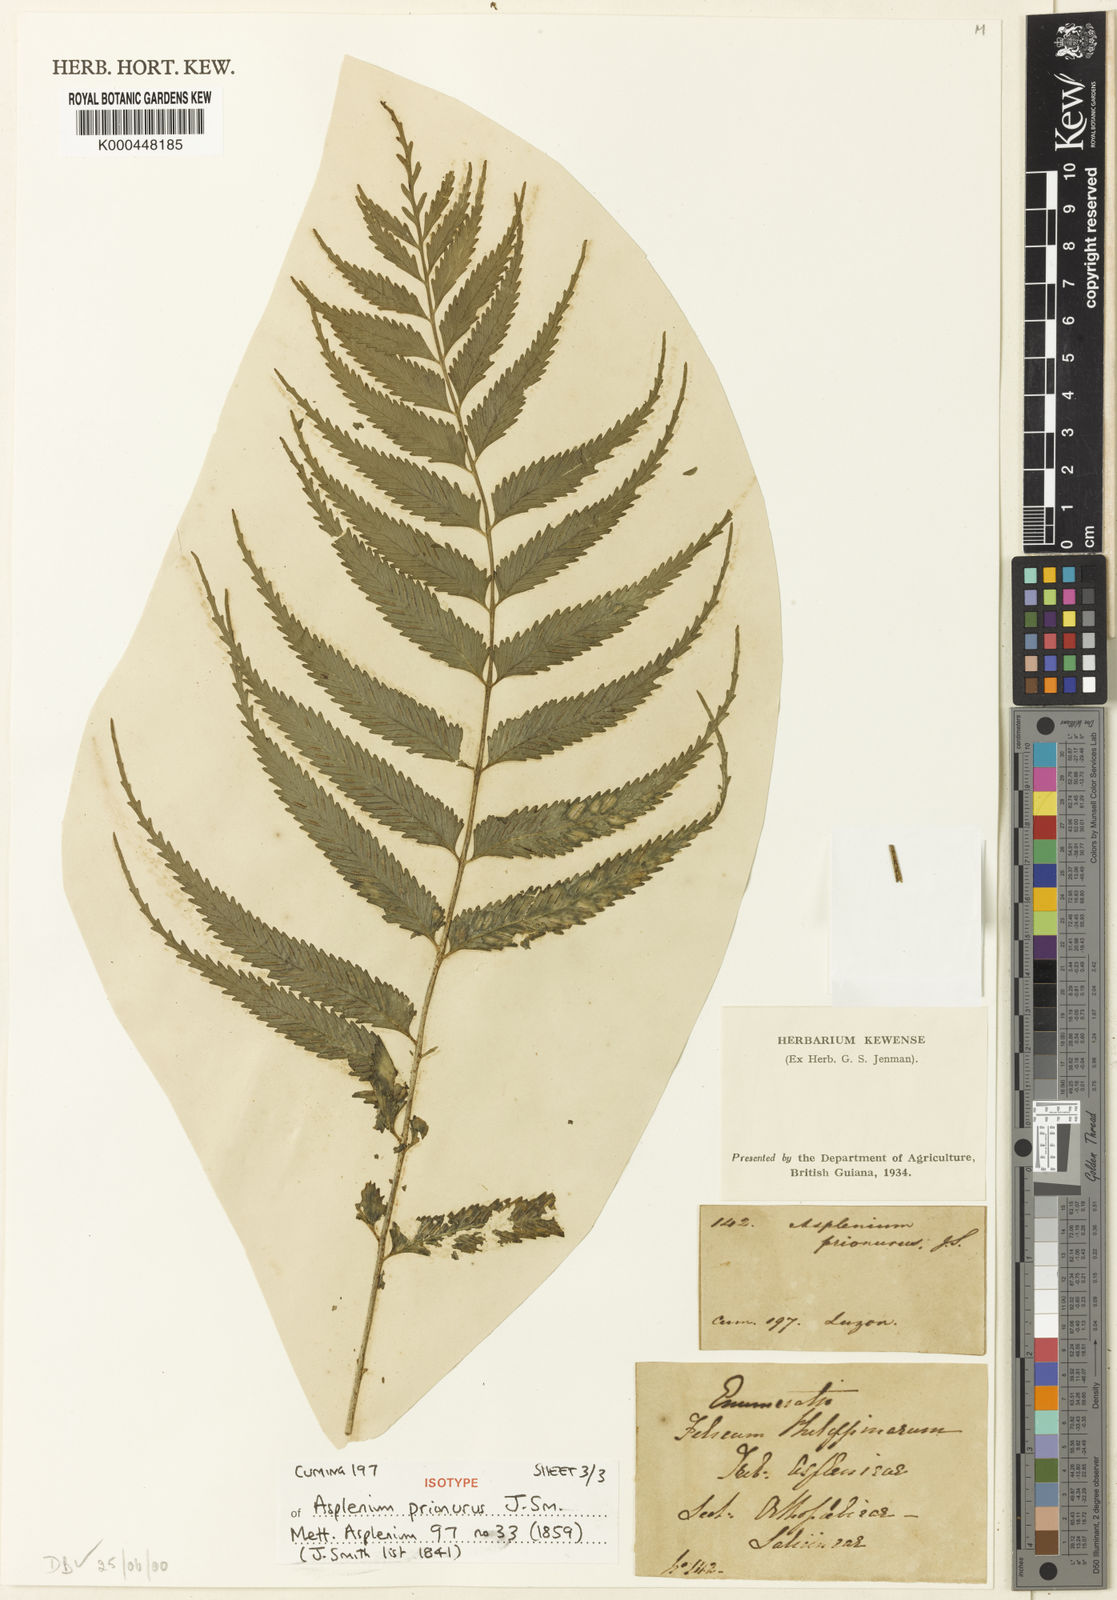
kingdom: Plantae
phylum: Tracheophyta
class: Polypodiopsida
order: Polypodiales
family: Aspleniaceae
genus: Asplenium
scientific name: Asplenium prionurus
